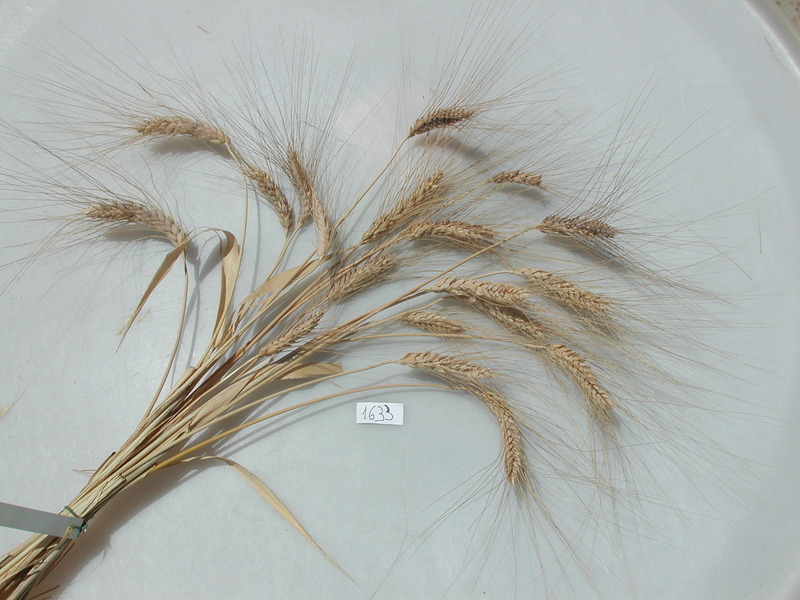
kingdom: Plantae
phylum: Tracheophyta
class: Liliopsida
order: Poales
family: Poaceae
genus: Triticum
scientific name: Triticum turgidum
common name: Wheat
